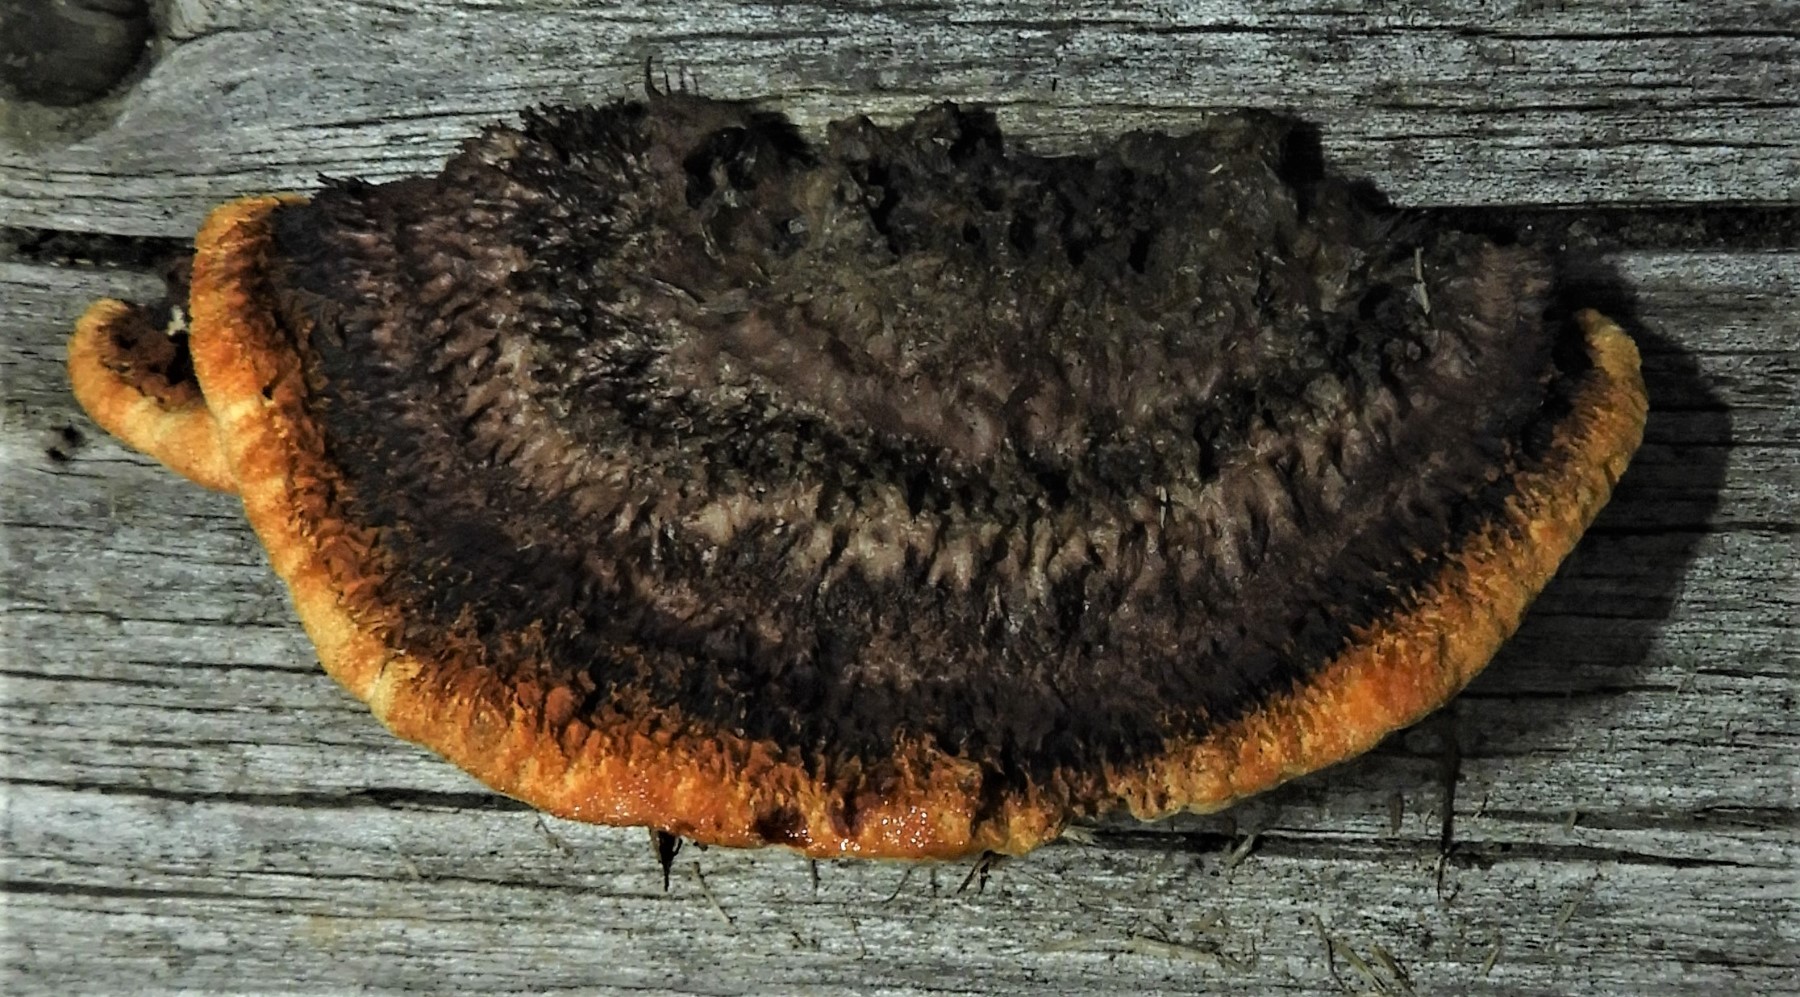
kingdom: Fungi
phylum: Basidiomycota
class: Agaricomycetes
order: Gloeophyllales
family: Gloeophyllaceae
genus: Gloeophyllum
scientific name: Gloeophyllum sepiarium
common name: fyrre-korkhat
